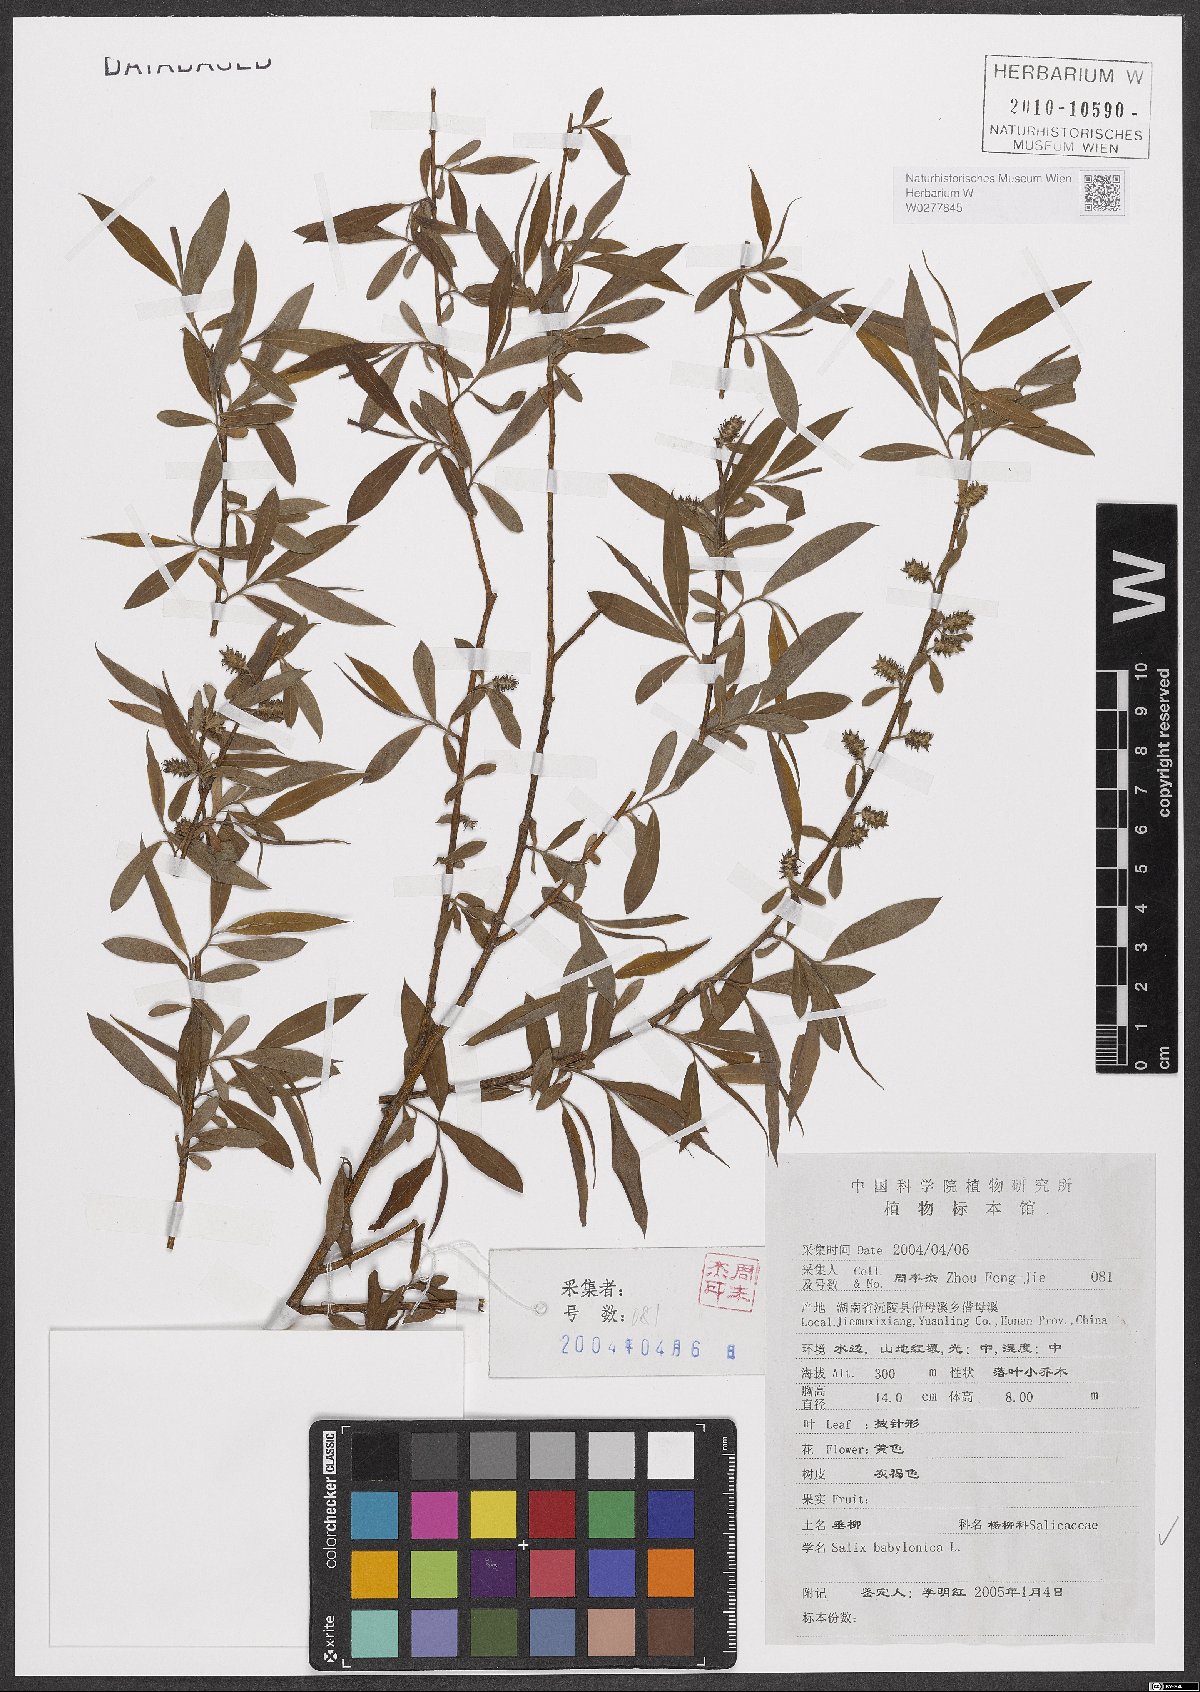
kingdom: Plantae
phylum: Tracheophyta
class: Magnoliopsida
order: Malpighiales
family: Salicaceae
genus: Salix
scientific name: Salix babylonica
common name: Weeping willow
